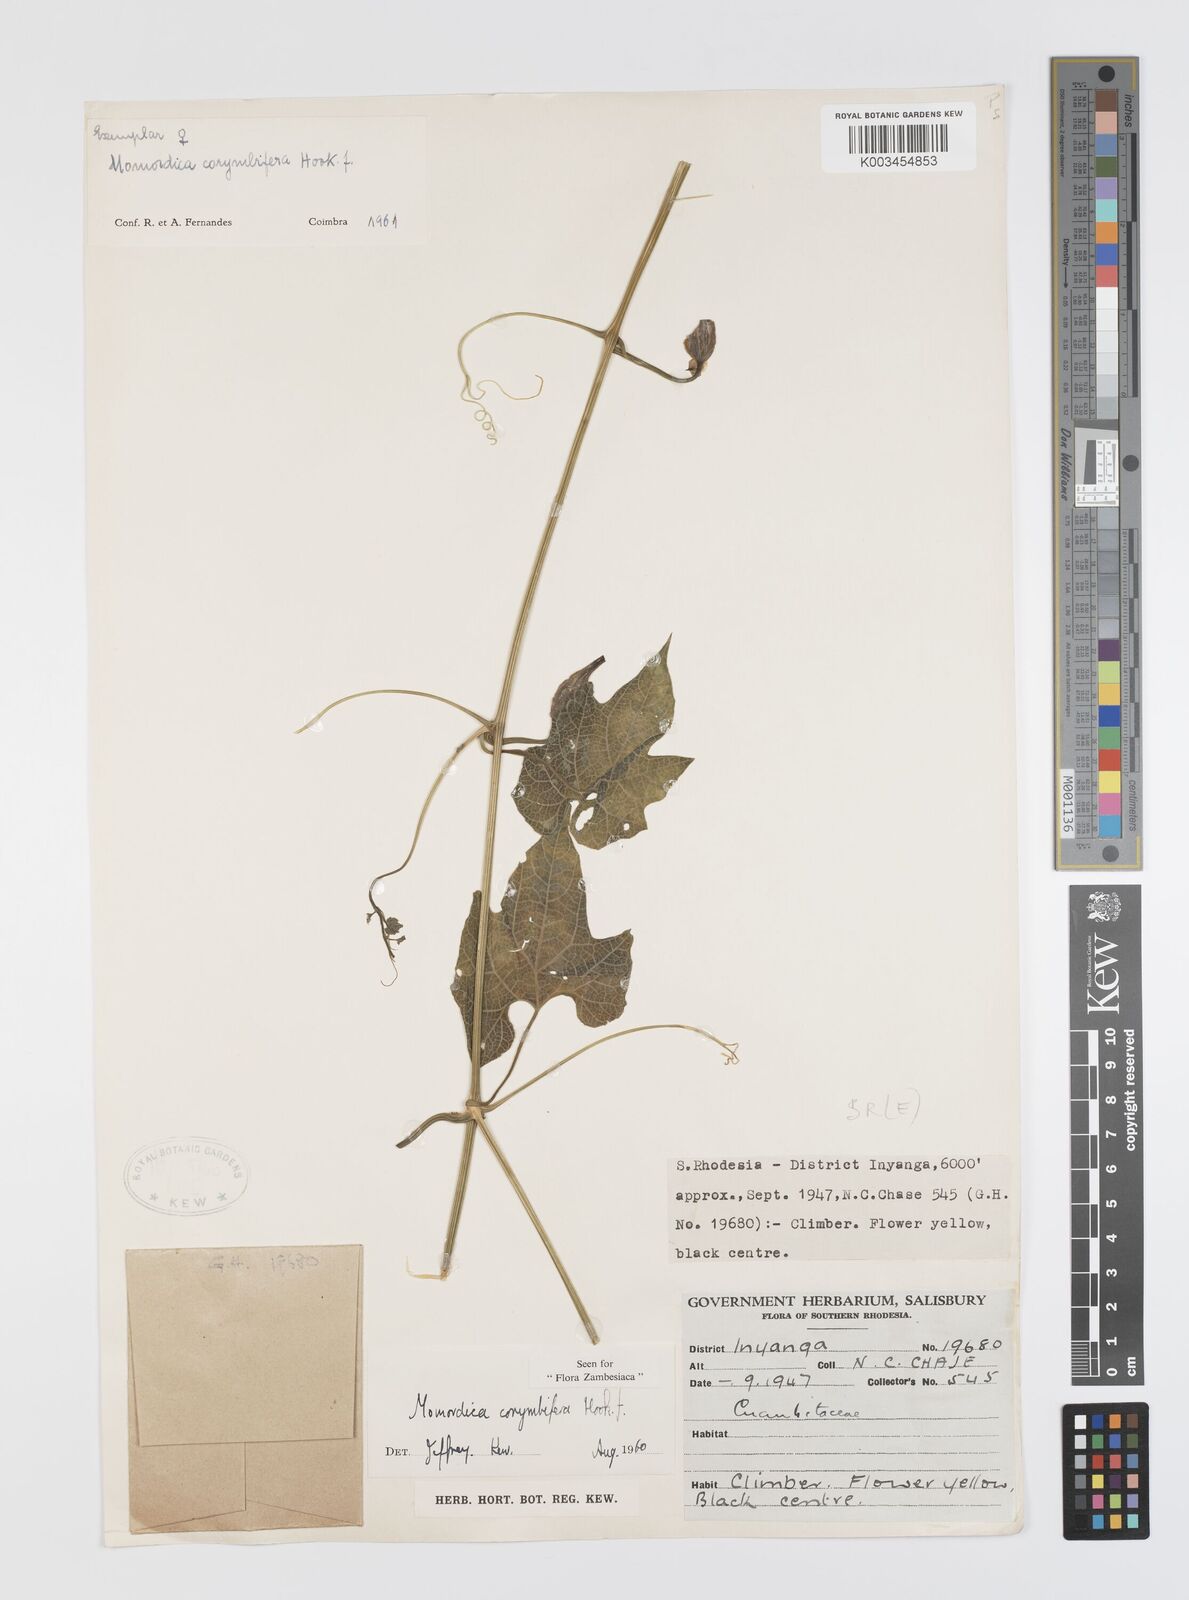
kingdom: Plantae
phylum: Tracheophyta
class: Magnoliopsida
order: Cucurbitales
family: Cucurbitaceae
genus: Momordica
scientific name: Momordica corymbifera
